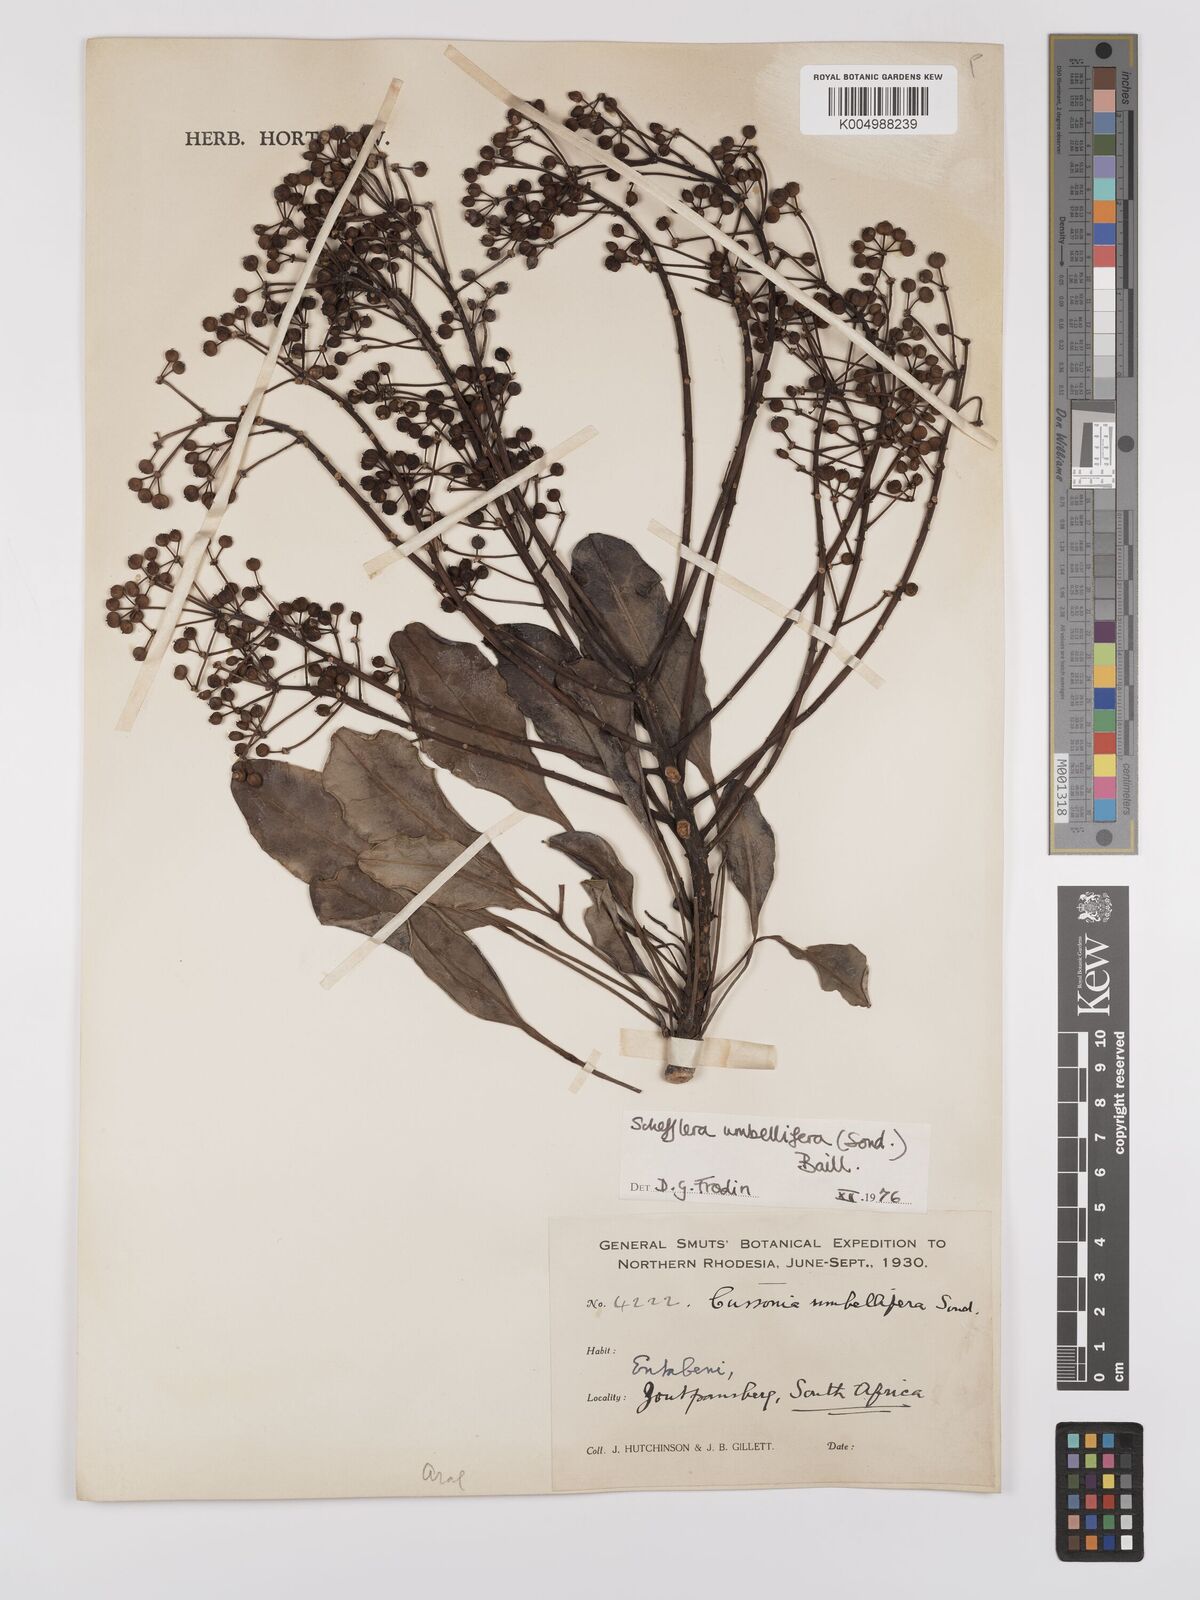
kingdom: Plantae
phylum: Tracheophyta
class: Magnoliopsida
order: Apiales
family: Araliaceae
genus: Neocussonia
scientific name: Neocussonia umbellifera
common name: False cabbage tree
